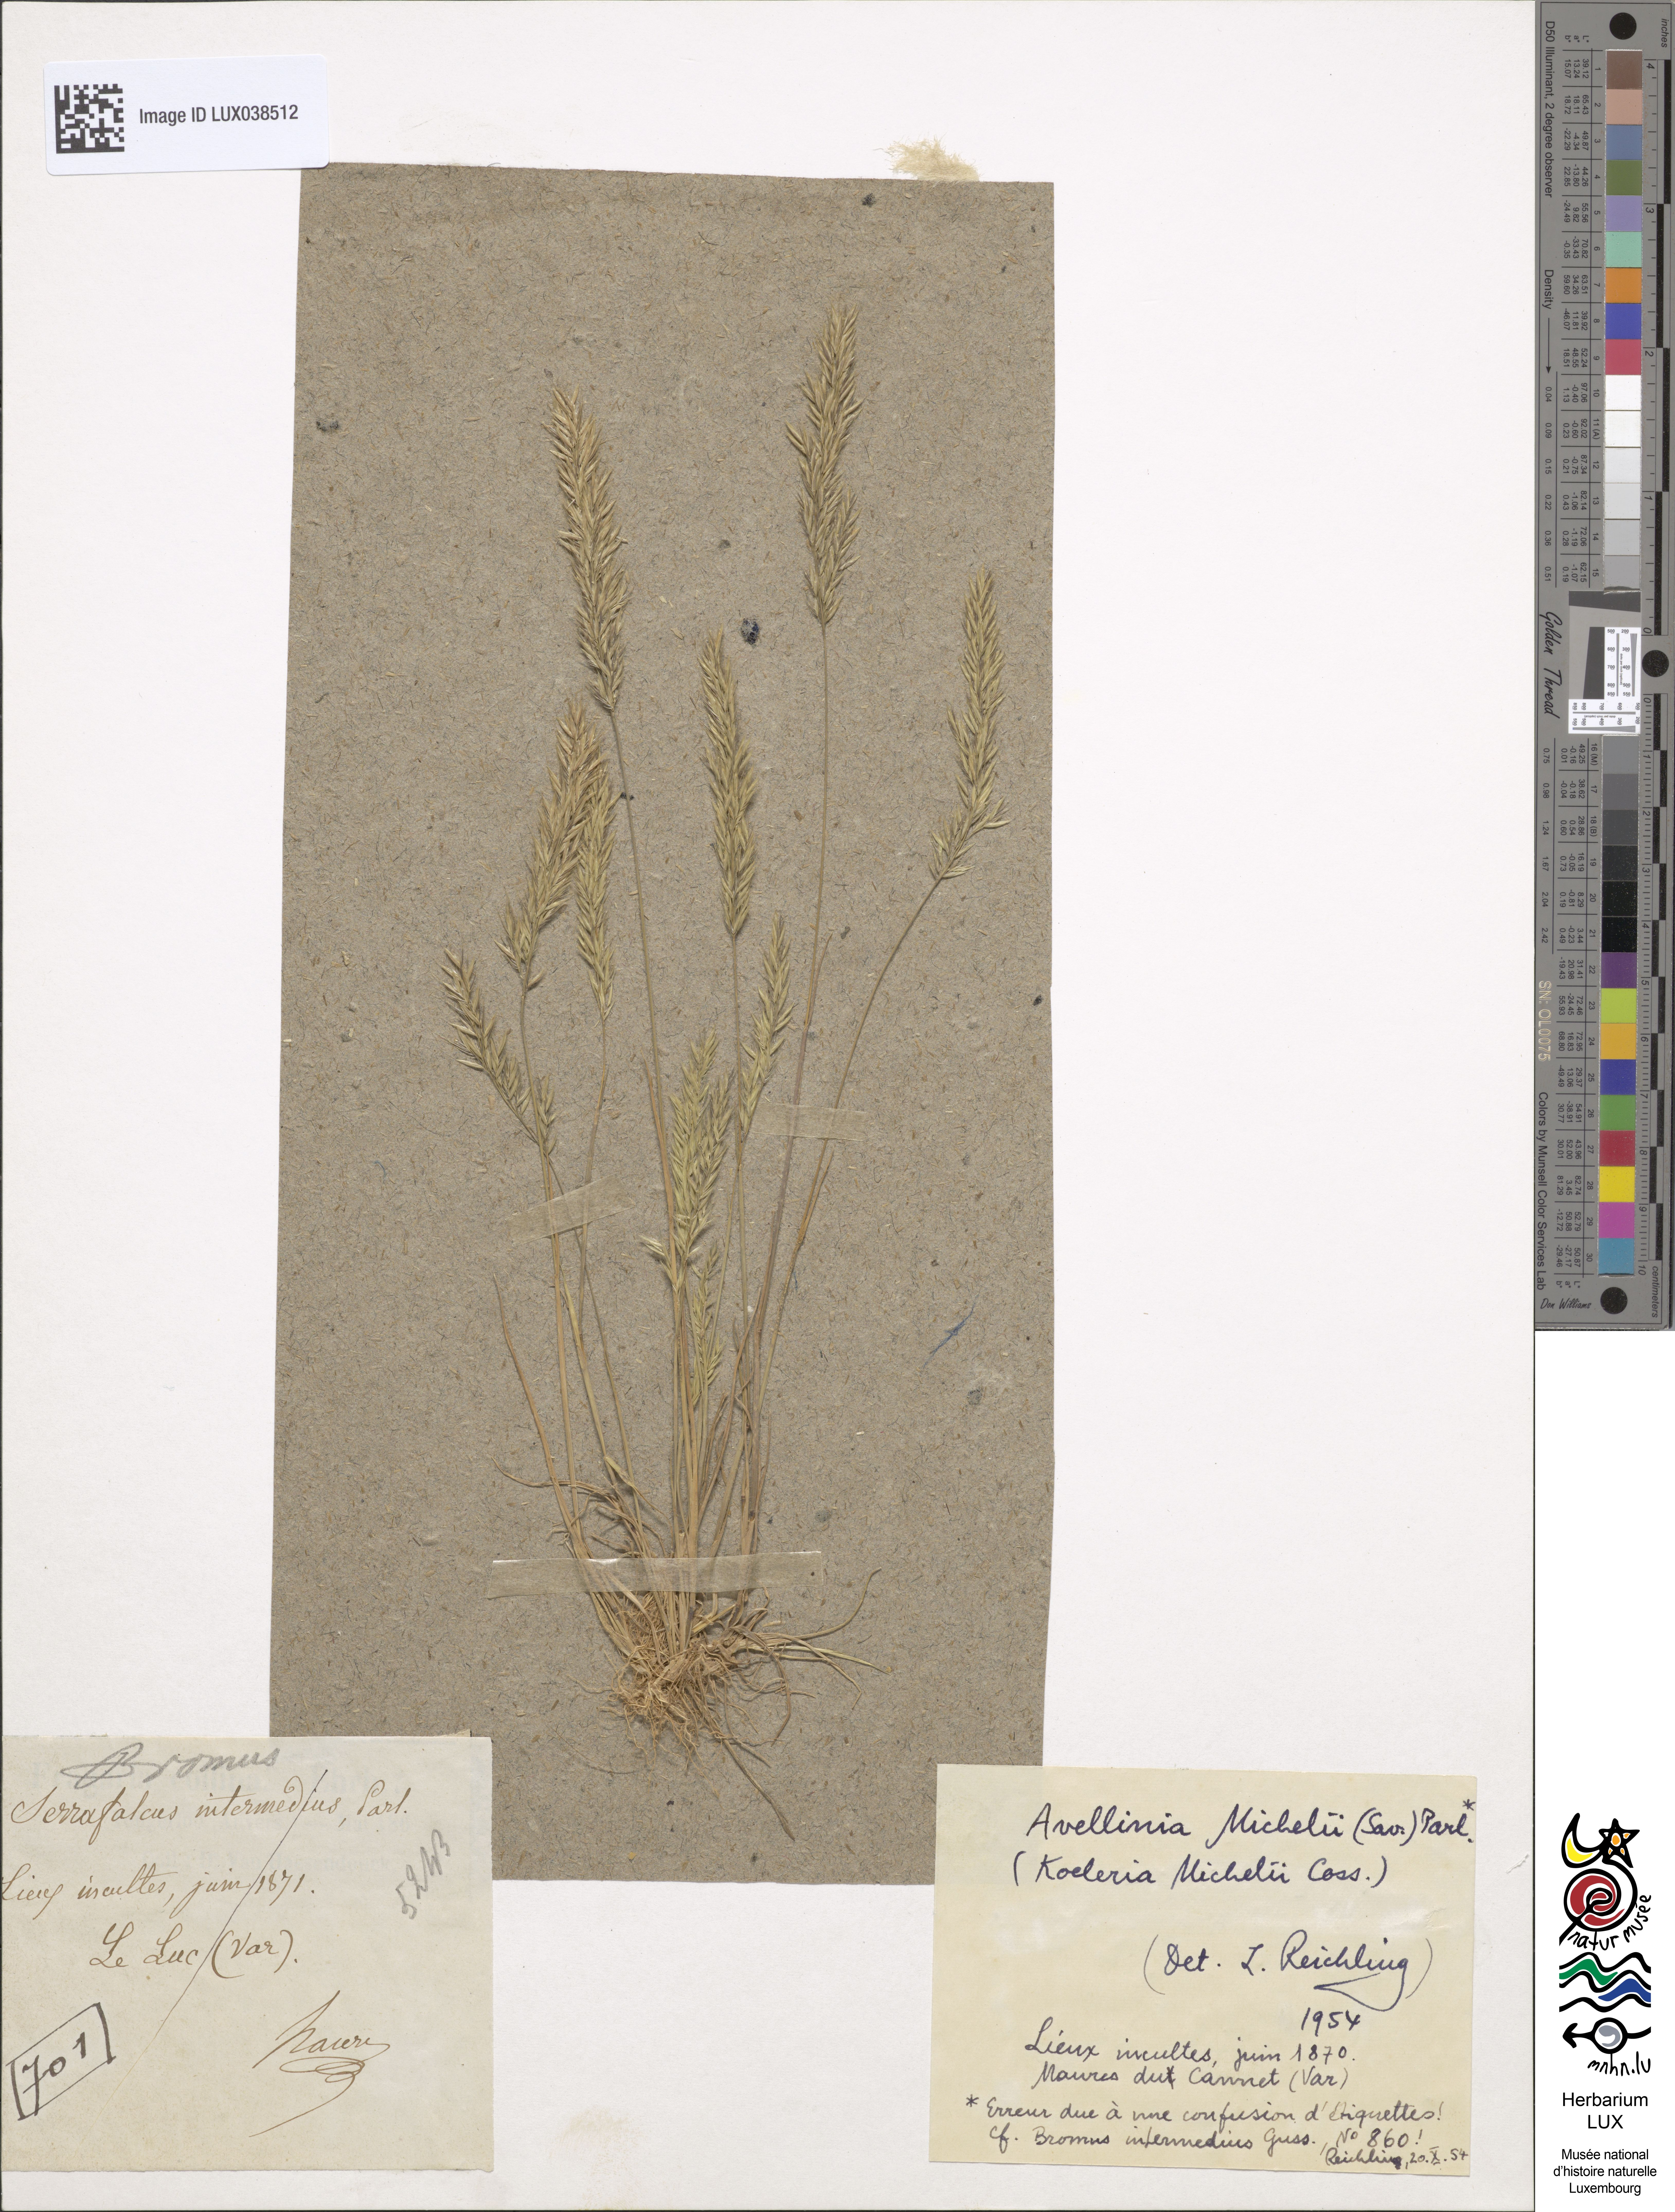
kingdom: Plantae
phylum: Tracheophyta
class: Liliopsida
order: Poales
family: Poaceae
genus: Avellinia
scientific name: Avellinia festucoides
